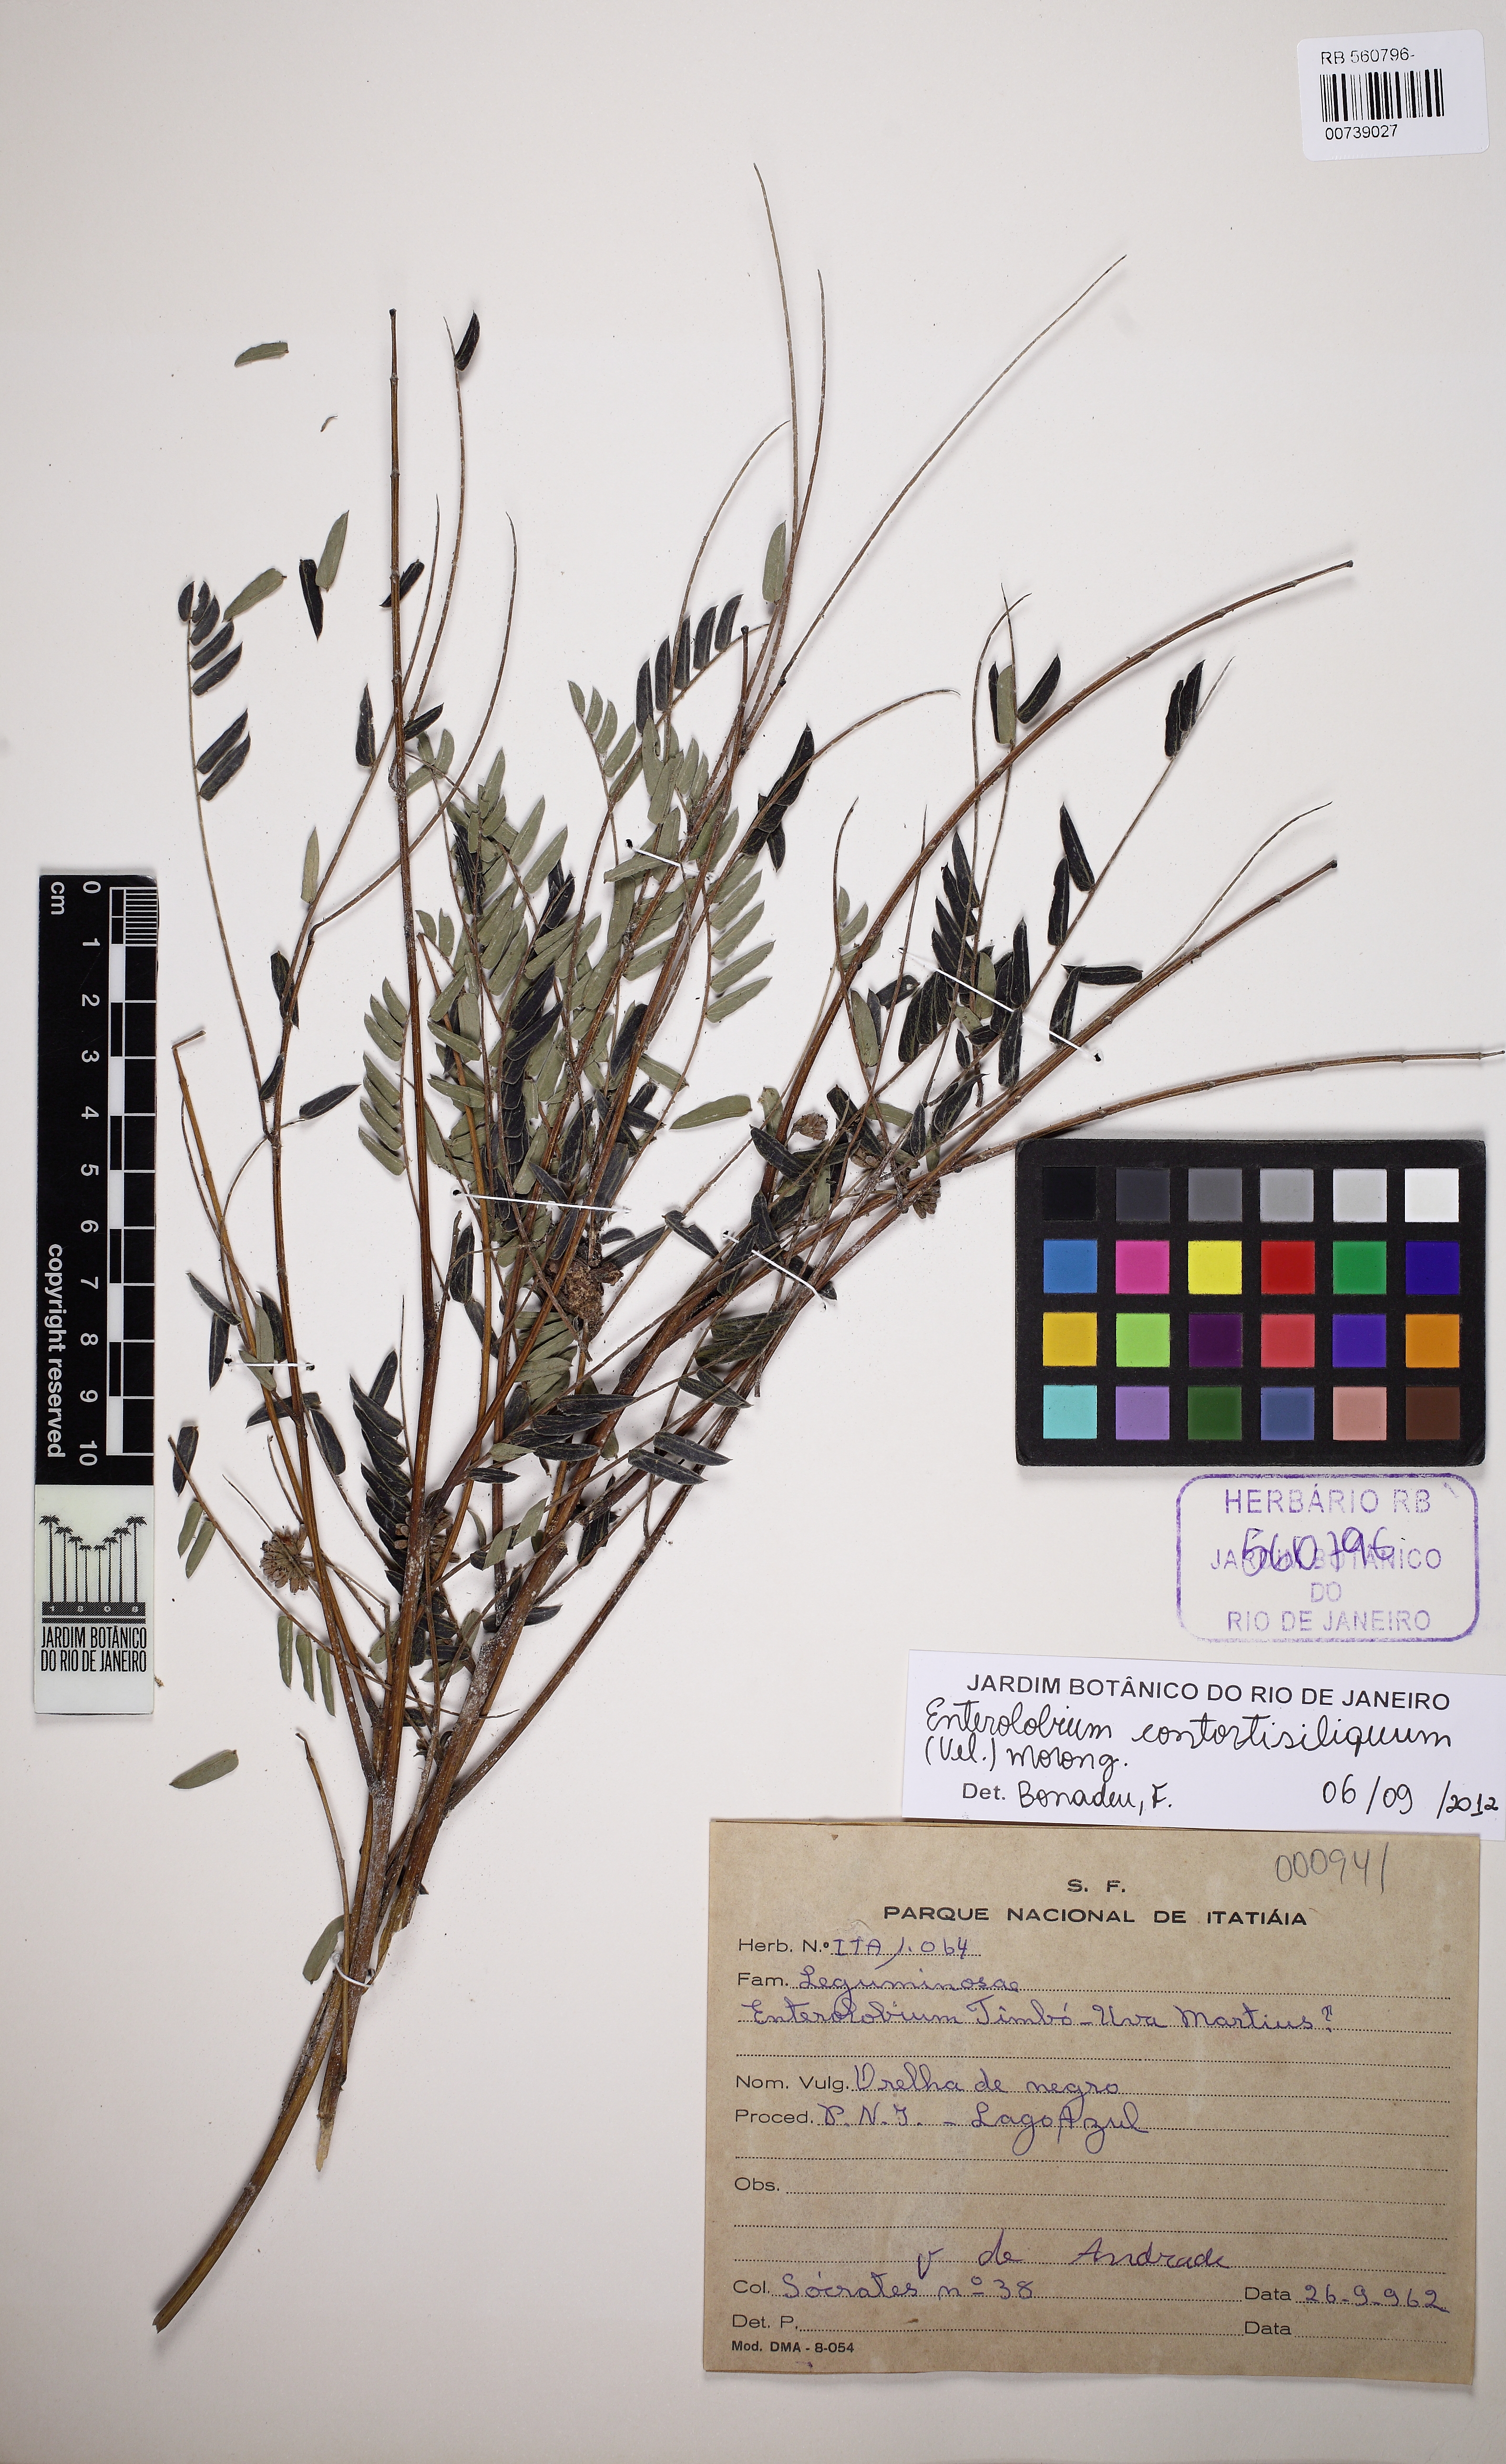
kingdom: Plantae
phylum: Tracheophyta
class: Magnoliopsida
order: Fabales
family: Fabaceae
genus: Enterolobium
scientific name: Enterolobium contortisiliquum
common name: Pacara earpod tree
